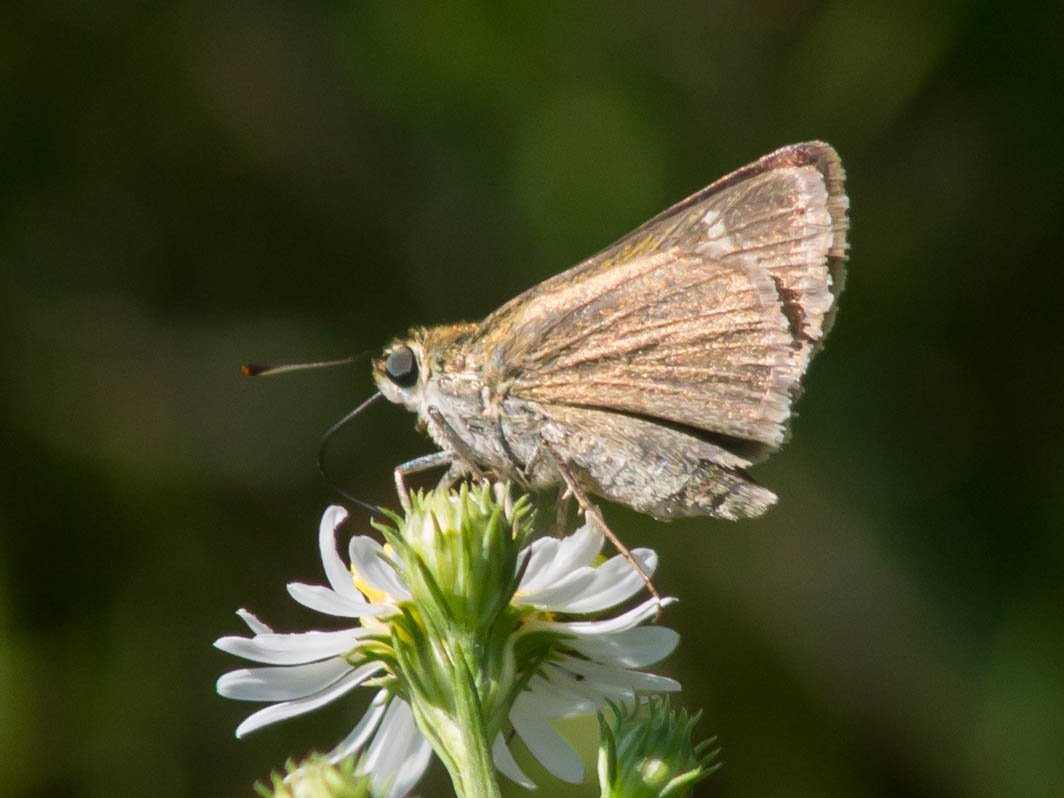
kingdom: Animalia
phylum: Arthropoda
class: Insecta
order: Lepidoptera
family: Hesperiidae
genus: Polites
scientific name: Polites themistocles
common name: Tawny-edged Skipper
